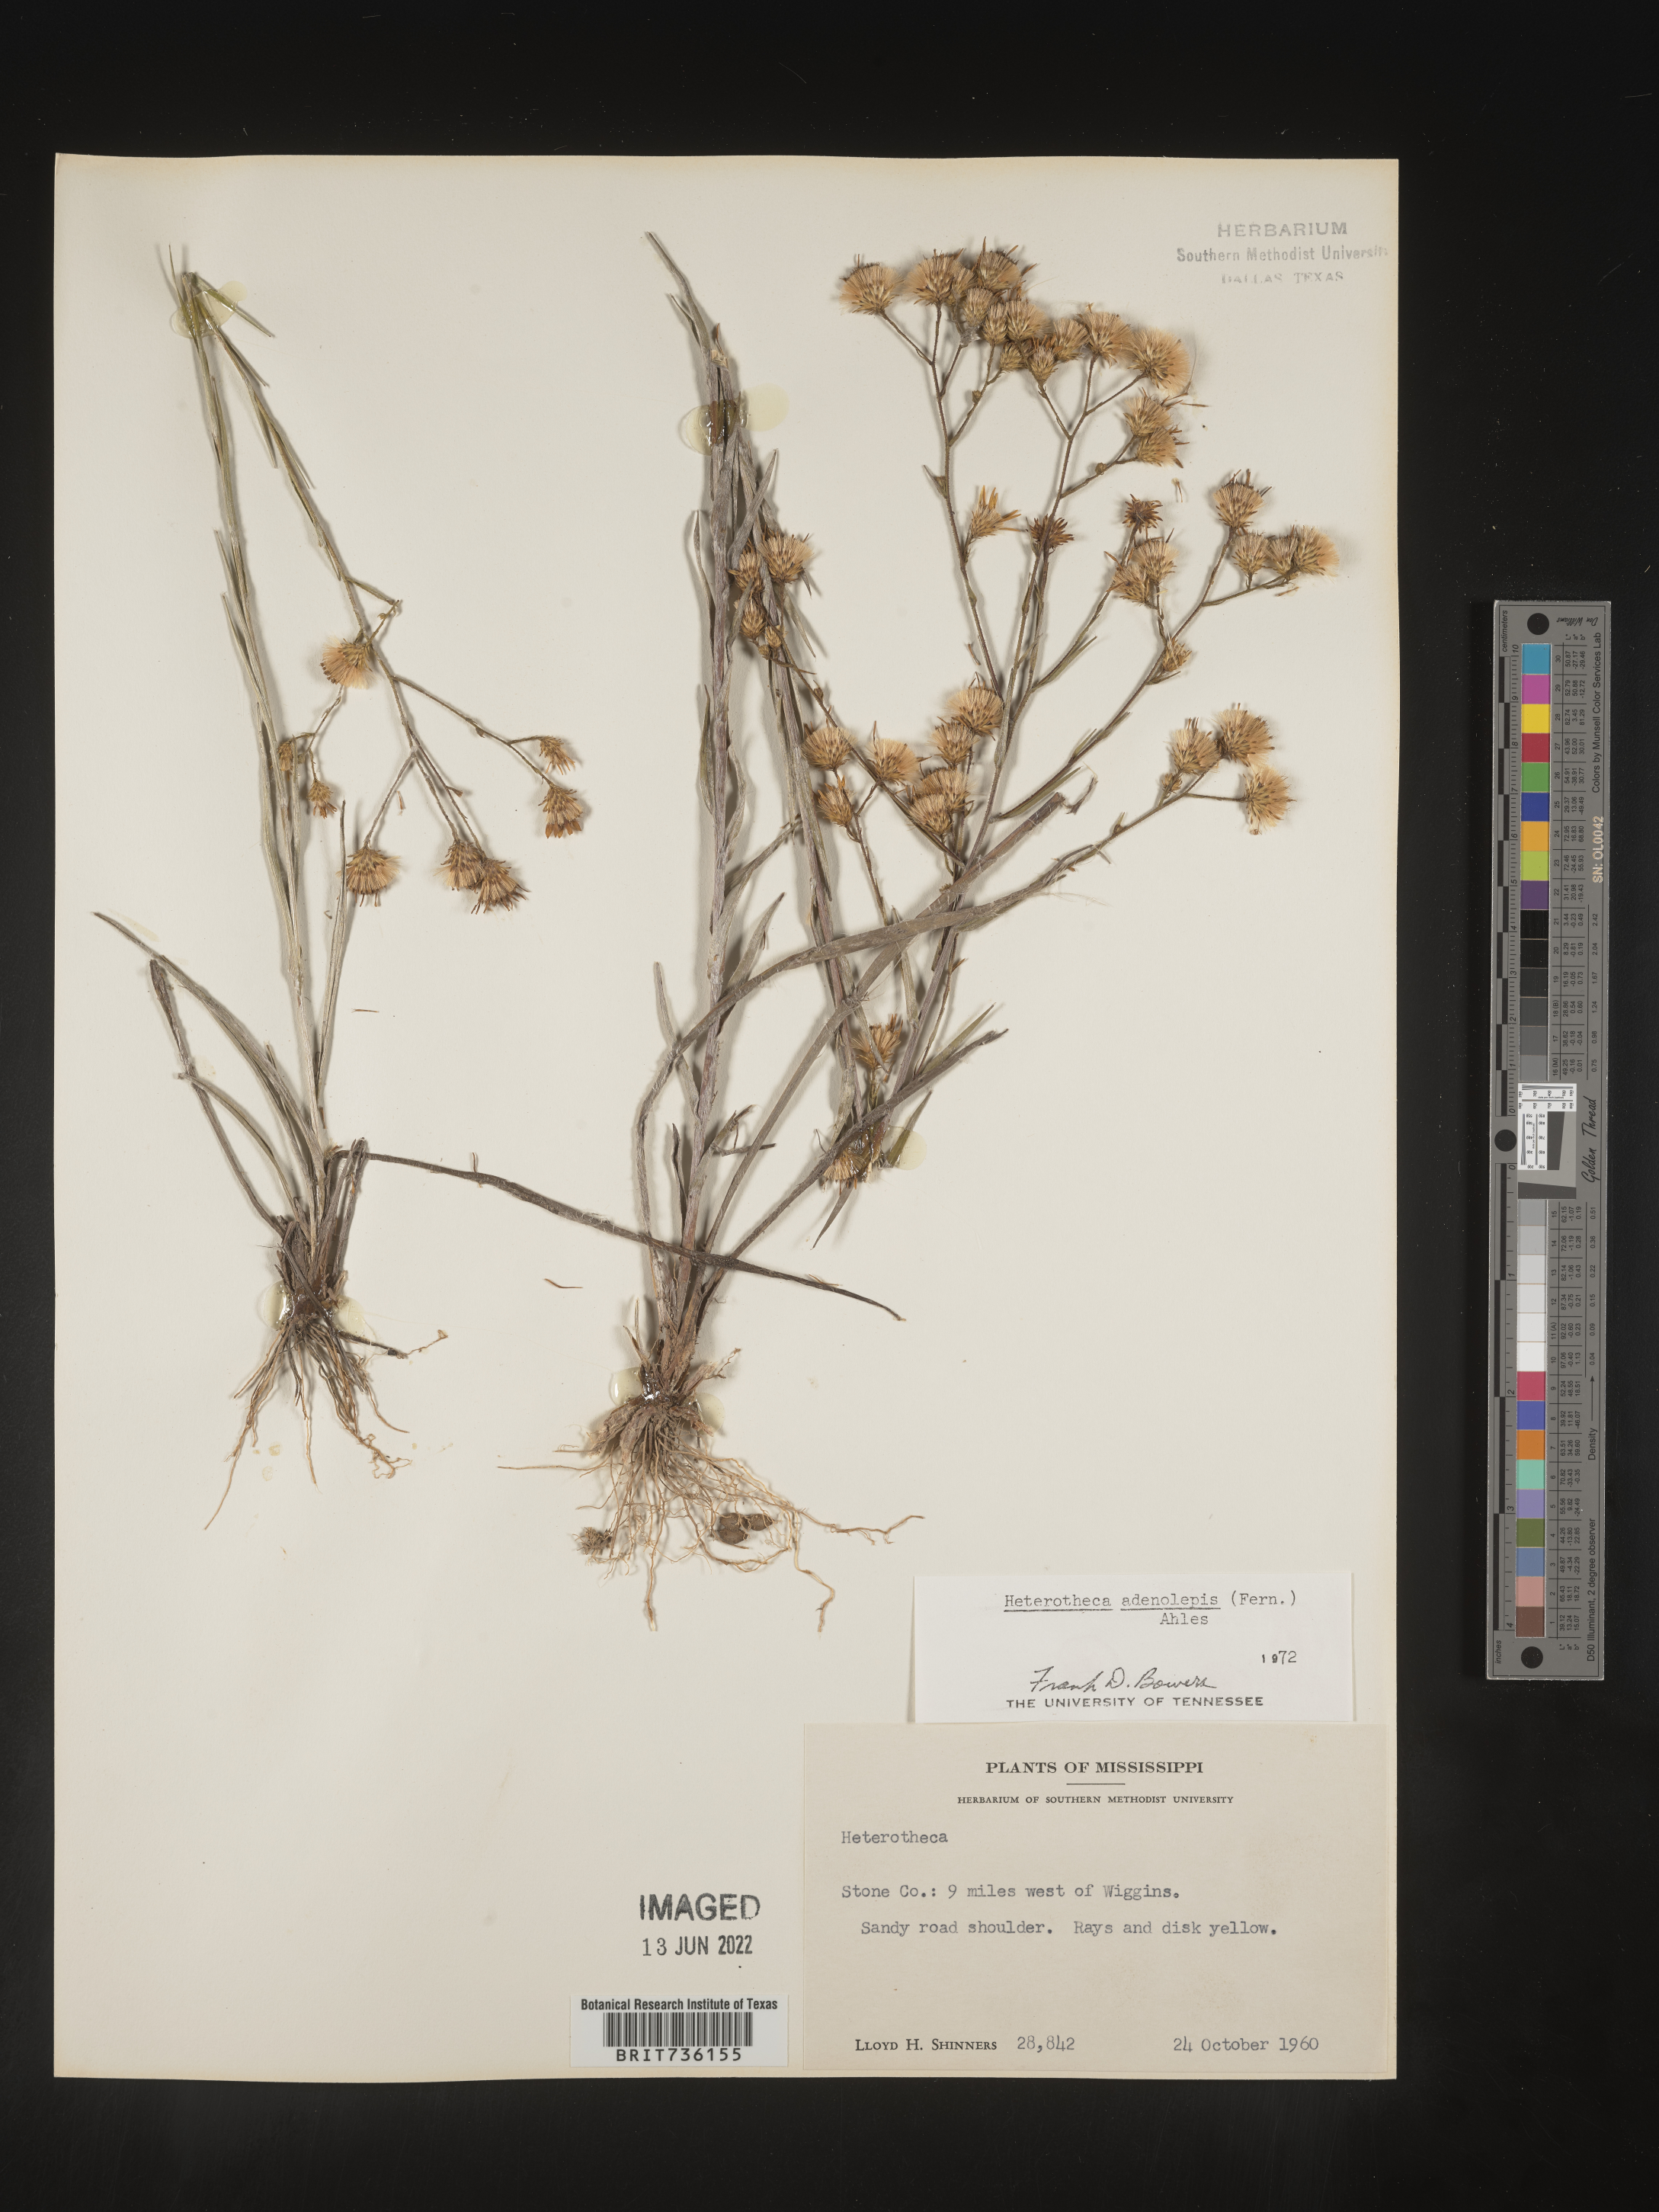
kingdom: Plantae
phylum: Tracheophyta
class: Magnoliopsida
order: Asterales
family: Asteraceae
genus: Pityopsis
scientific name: Pityopsis aspera
